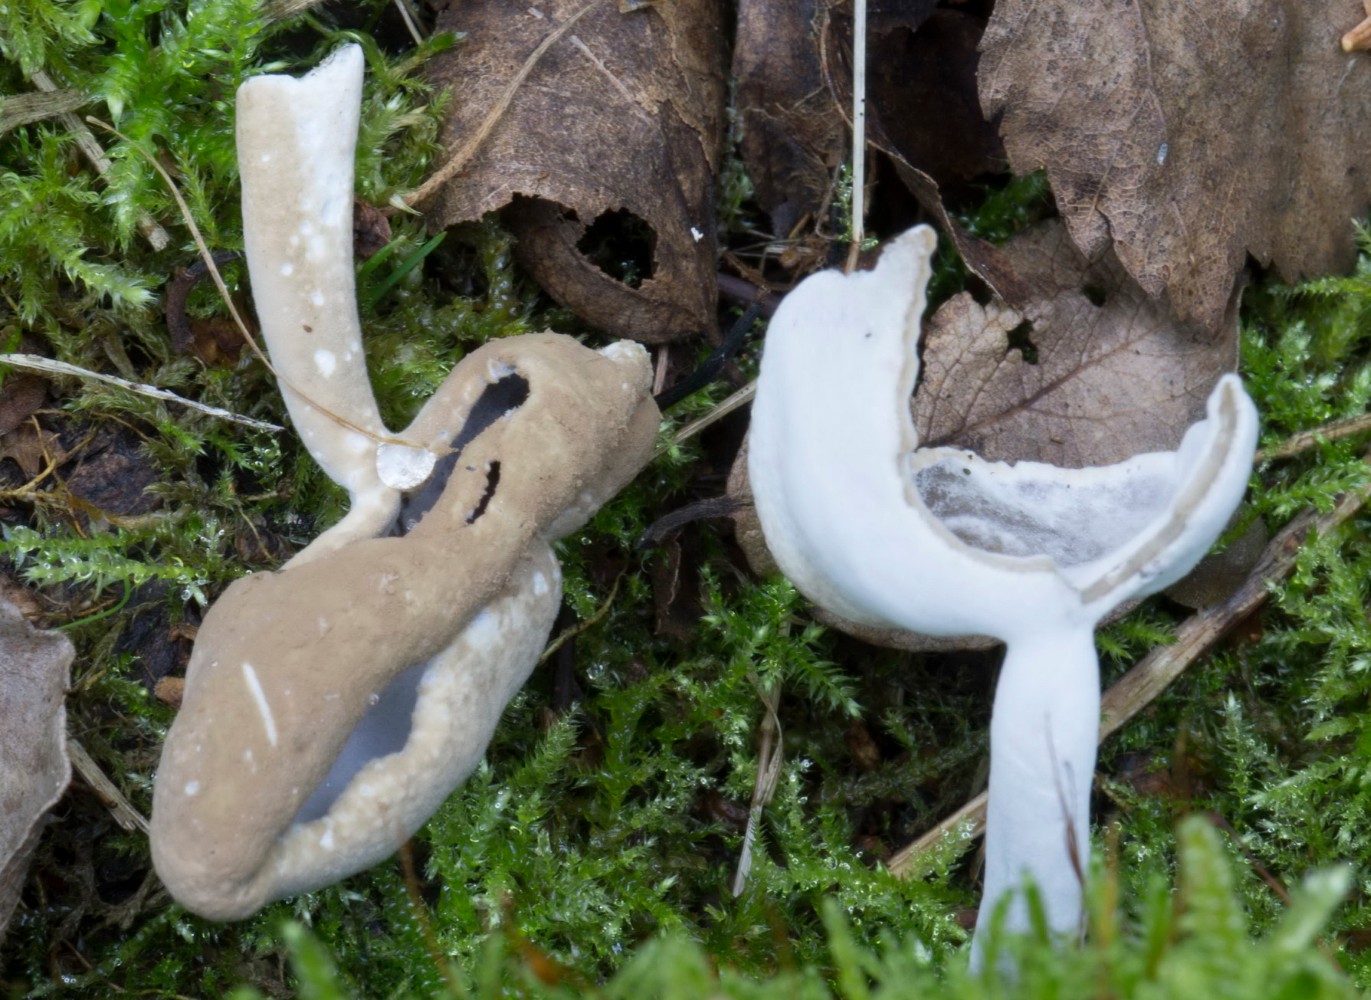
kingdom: Fungi
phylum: Ascomycota
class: Sordariomycetes
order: Hypocreales
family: Hypocreaceae
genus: Hypomyces
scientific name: Hypomyces cervinus
